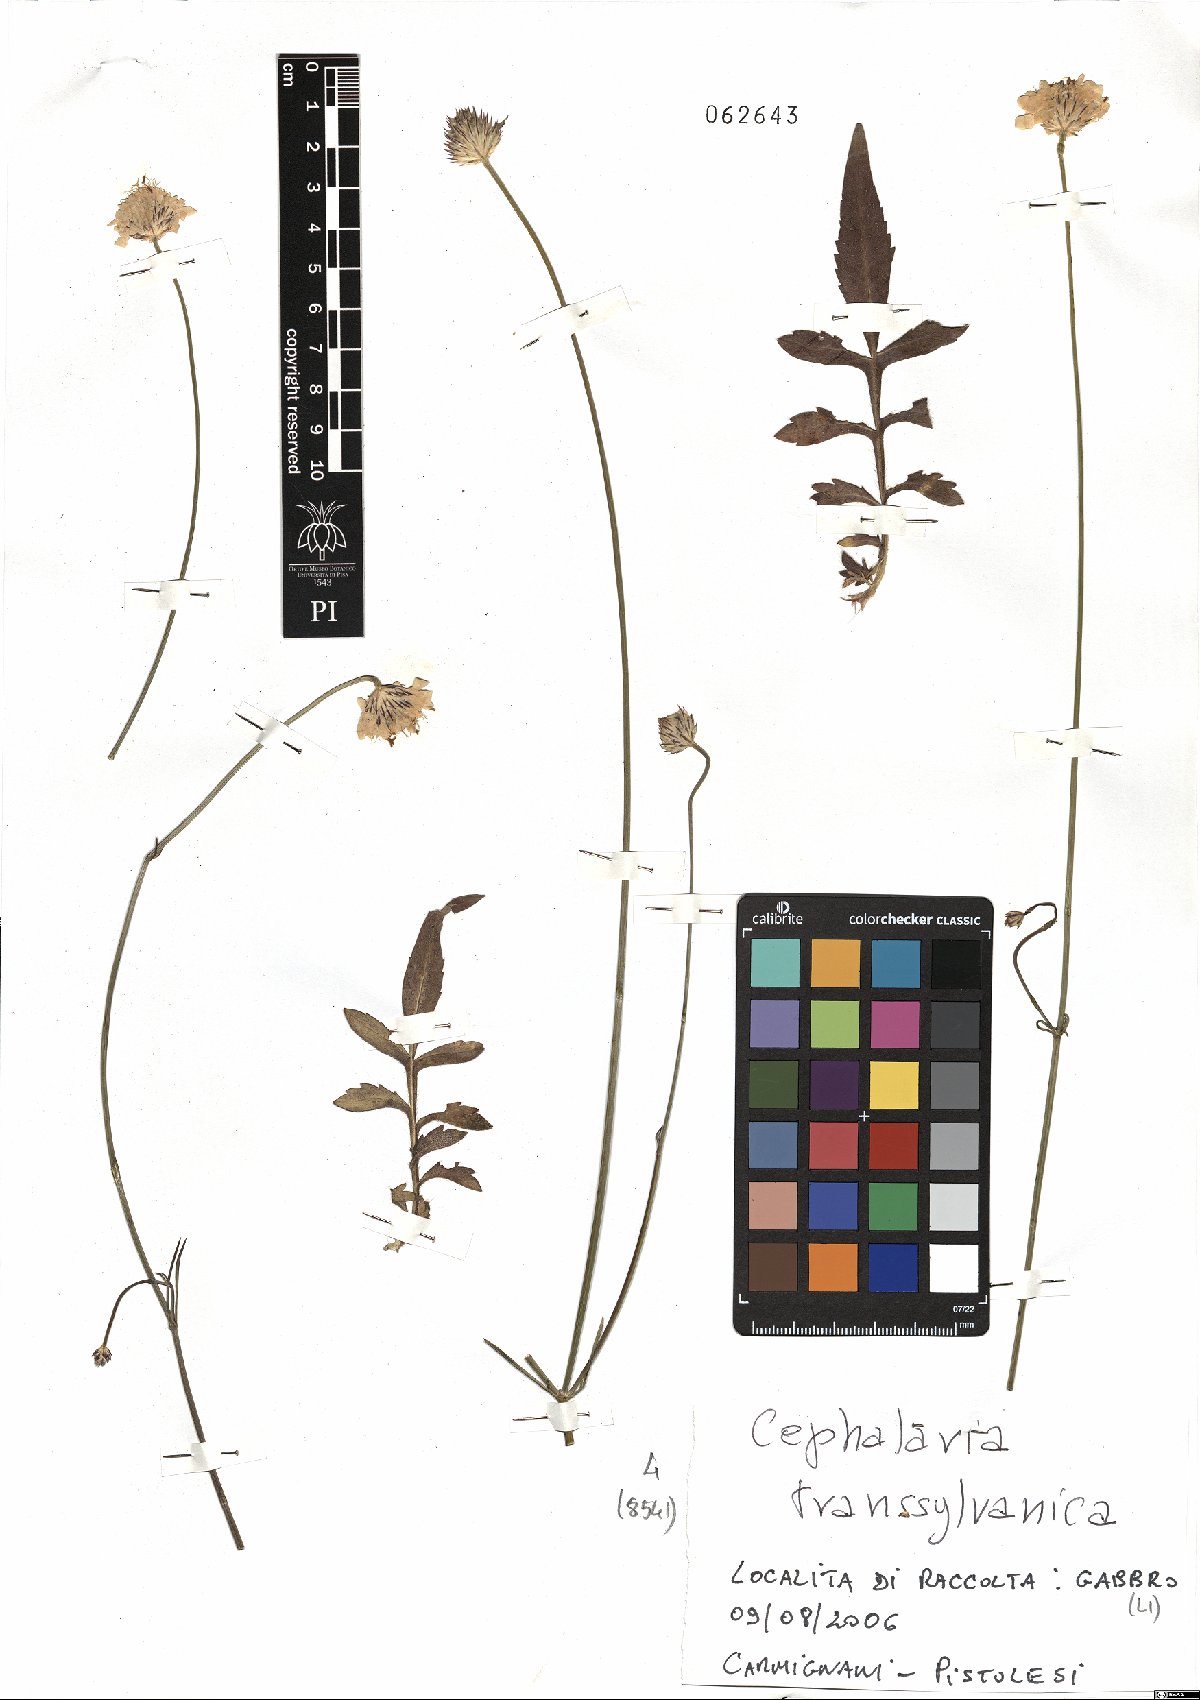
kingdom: Plantae
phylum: Tracheophyta
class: Magnoliopsida
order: Dipsacales
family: Caprifoliaceae
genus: Cephalaria
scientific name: Cephalaria transsylvanica
